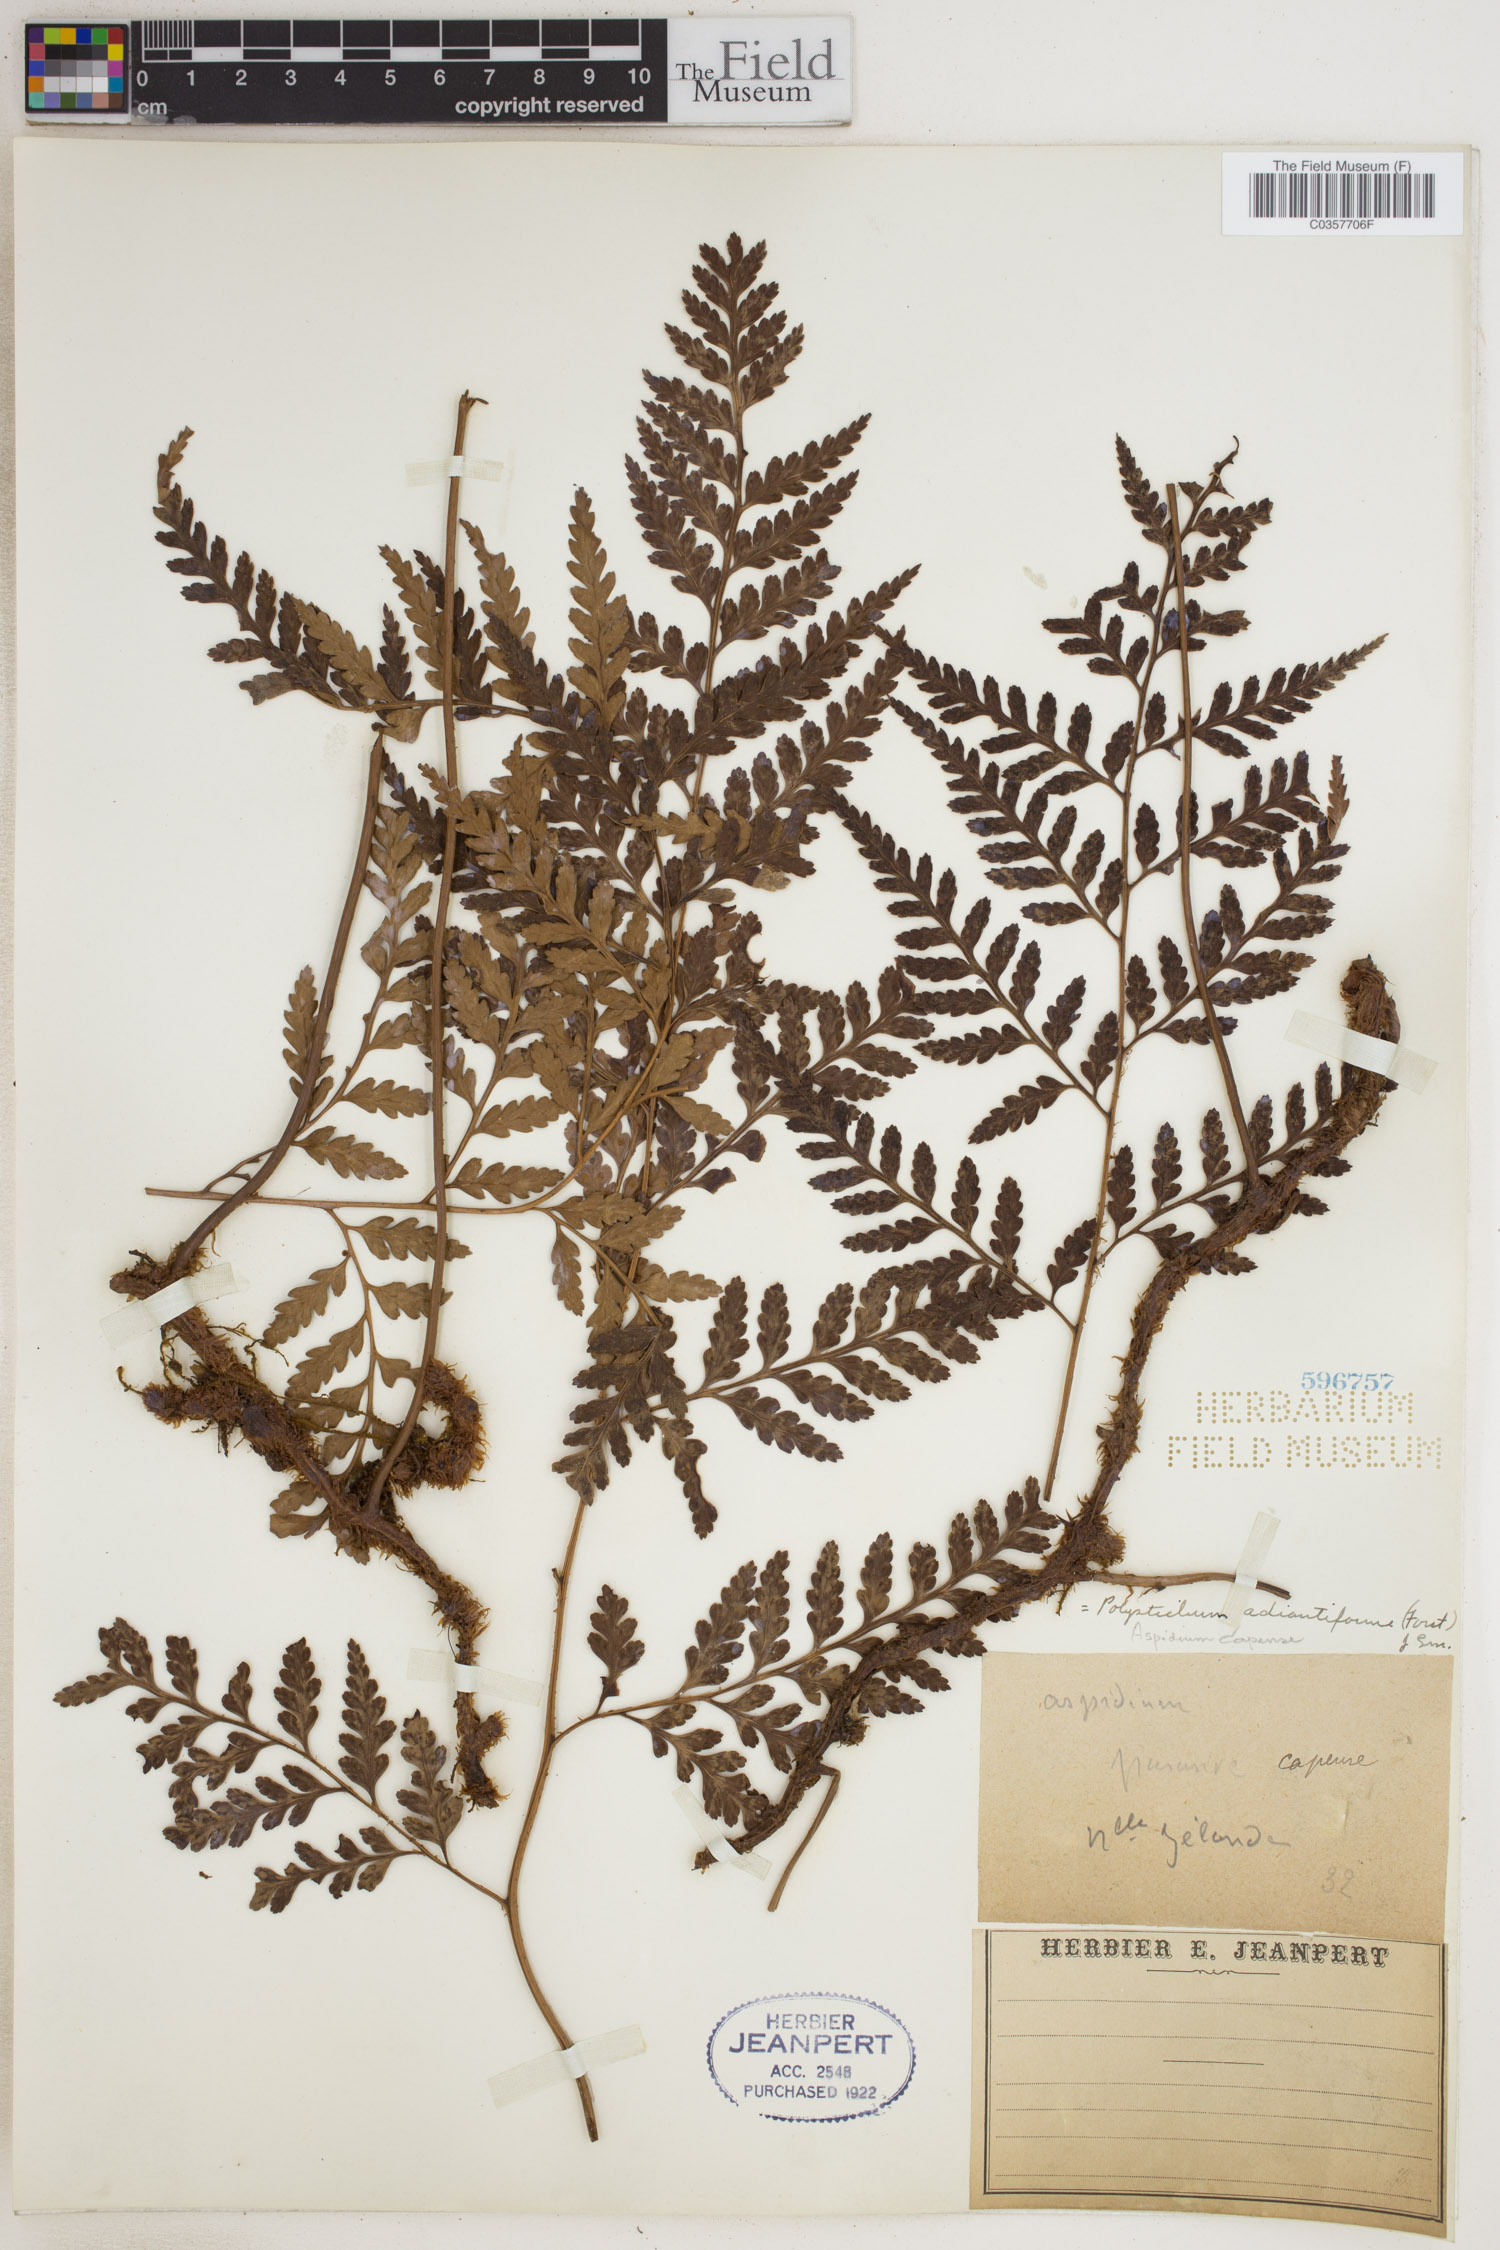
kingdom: Plantae
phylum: Tracheophyta
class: Polypodiopsida
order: Polypodiales
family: Dryopteridaceae
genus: Rumohra
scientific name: Rumohra adiantiformis
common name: Leather fern
